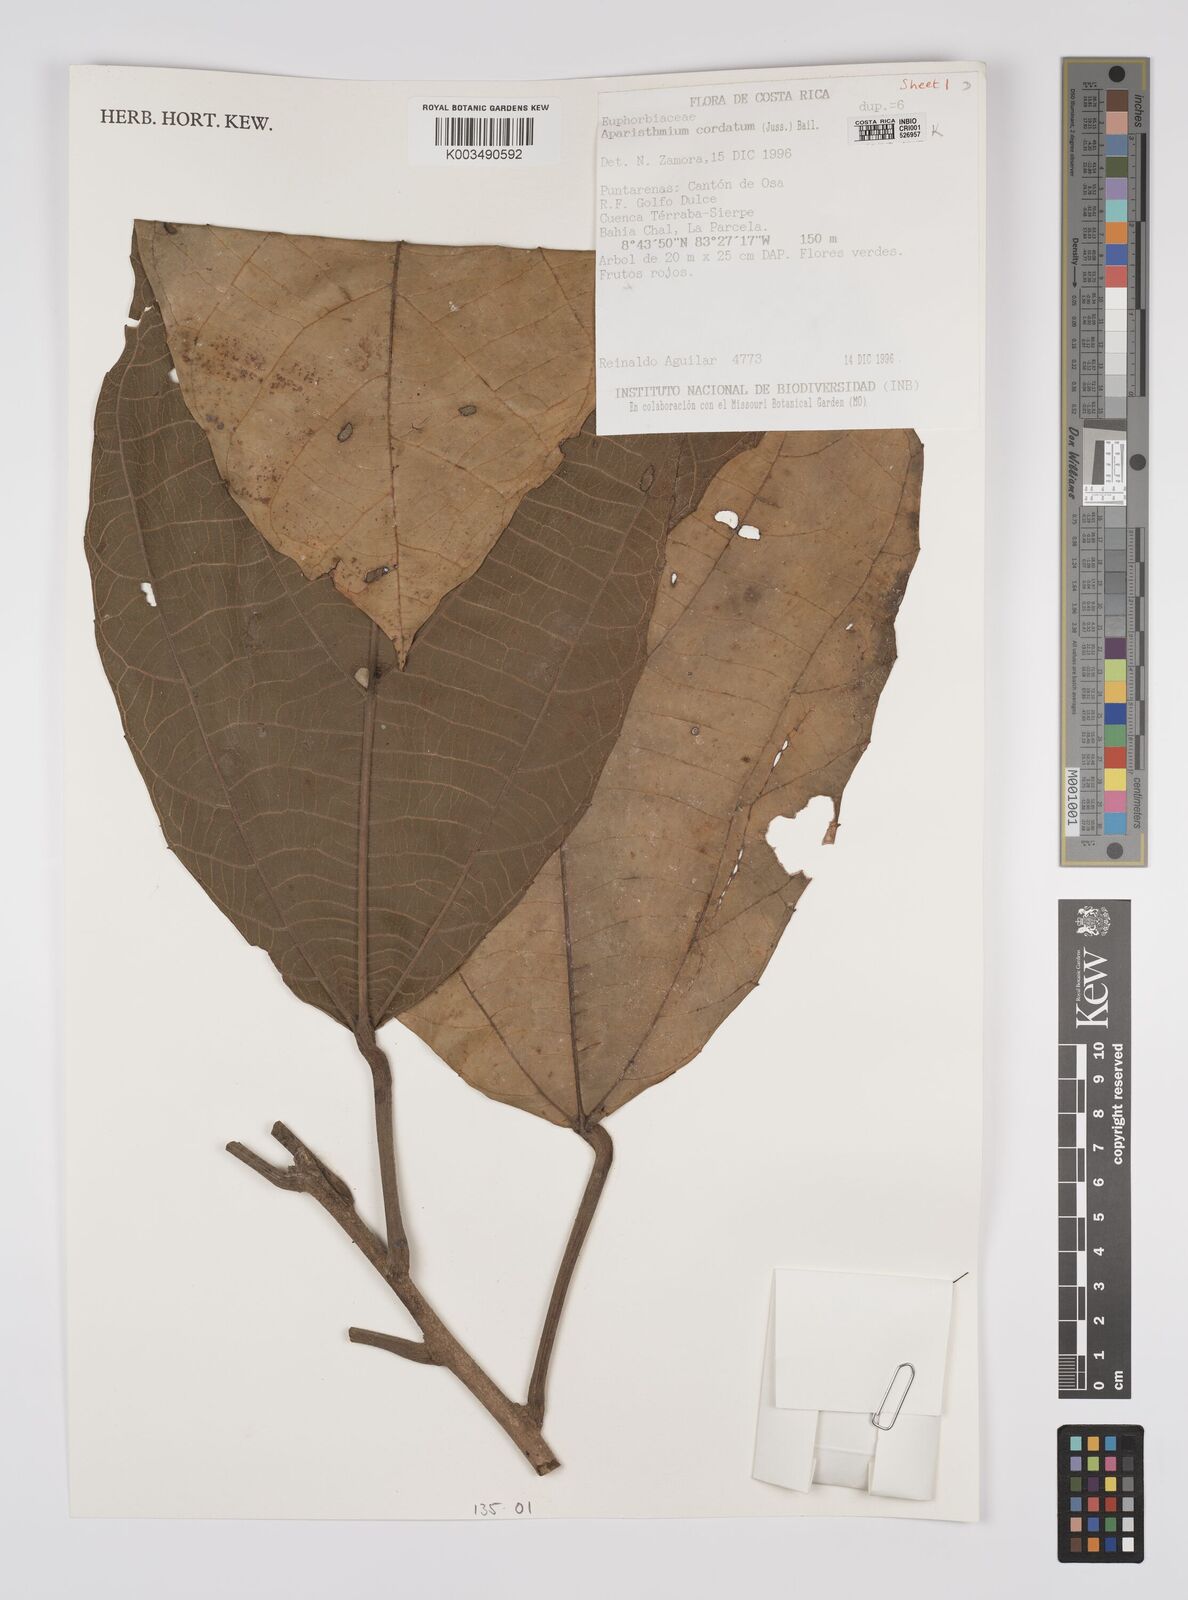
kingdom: Plantae
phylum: Tracheophyta
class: Magnoliopsida
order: Malpighiales
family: Euphorbiaceae
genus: Aparisthmium
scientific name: Aparisthmium cordatum
